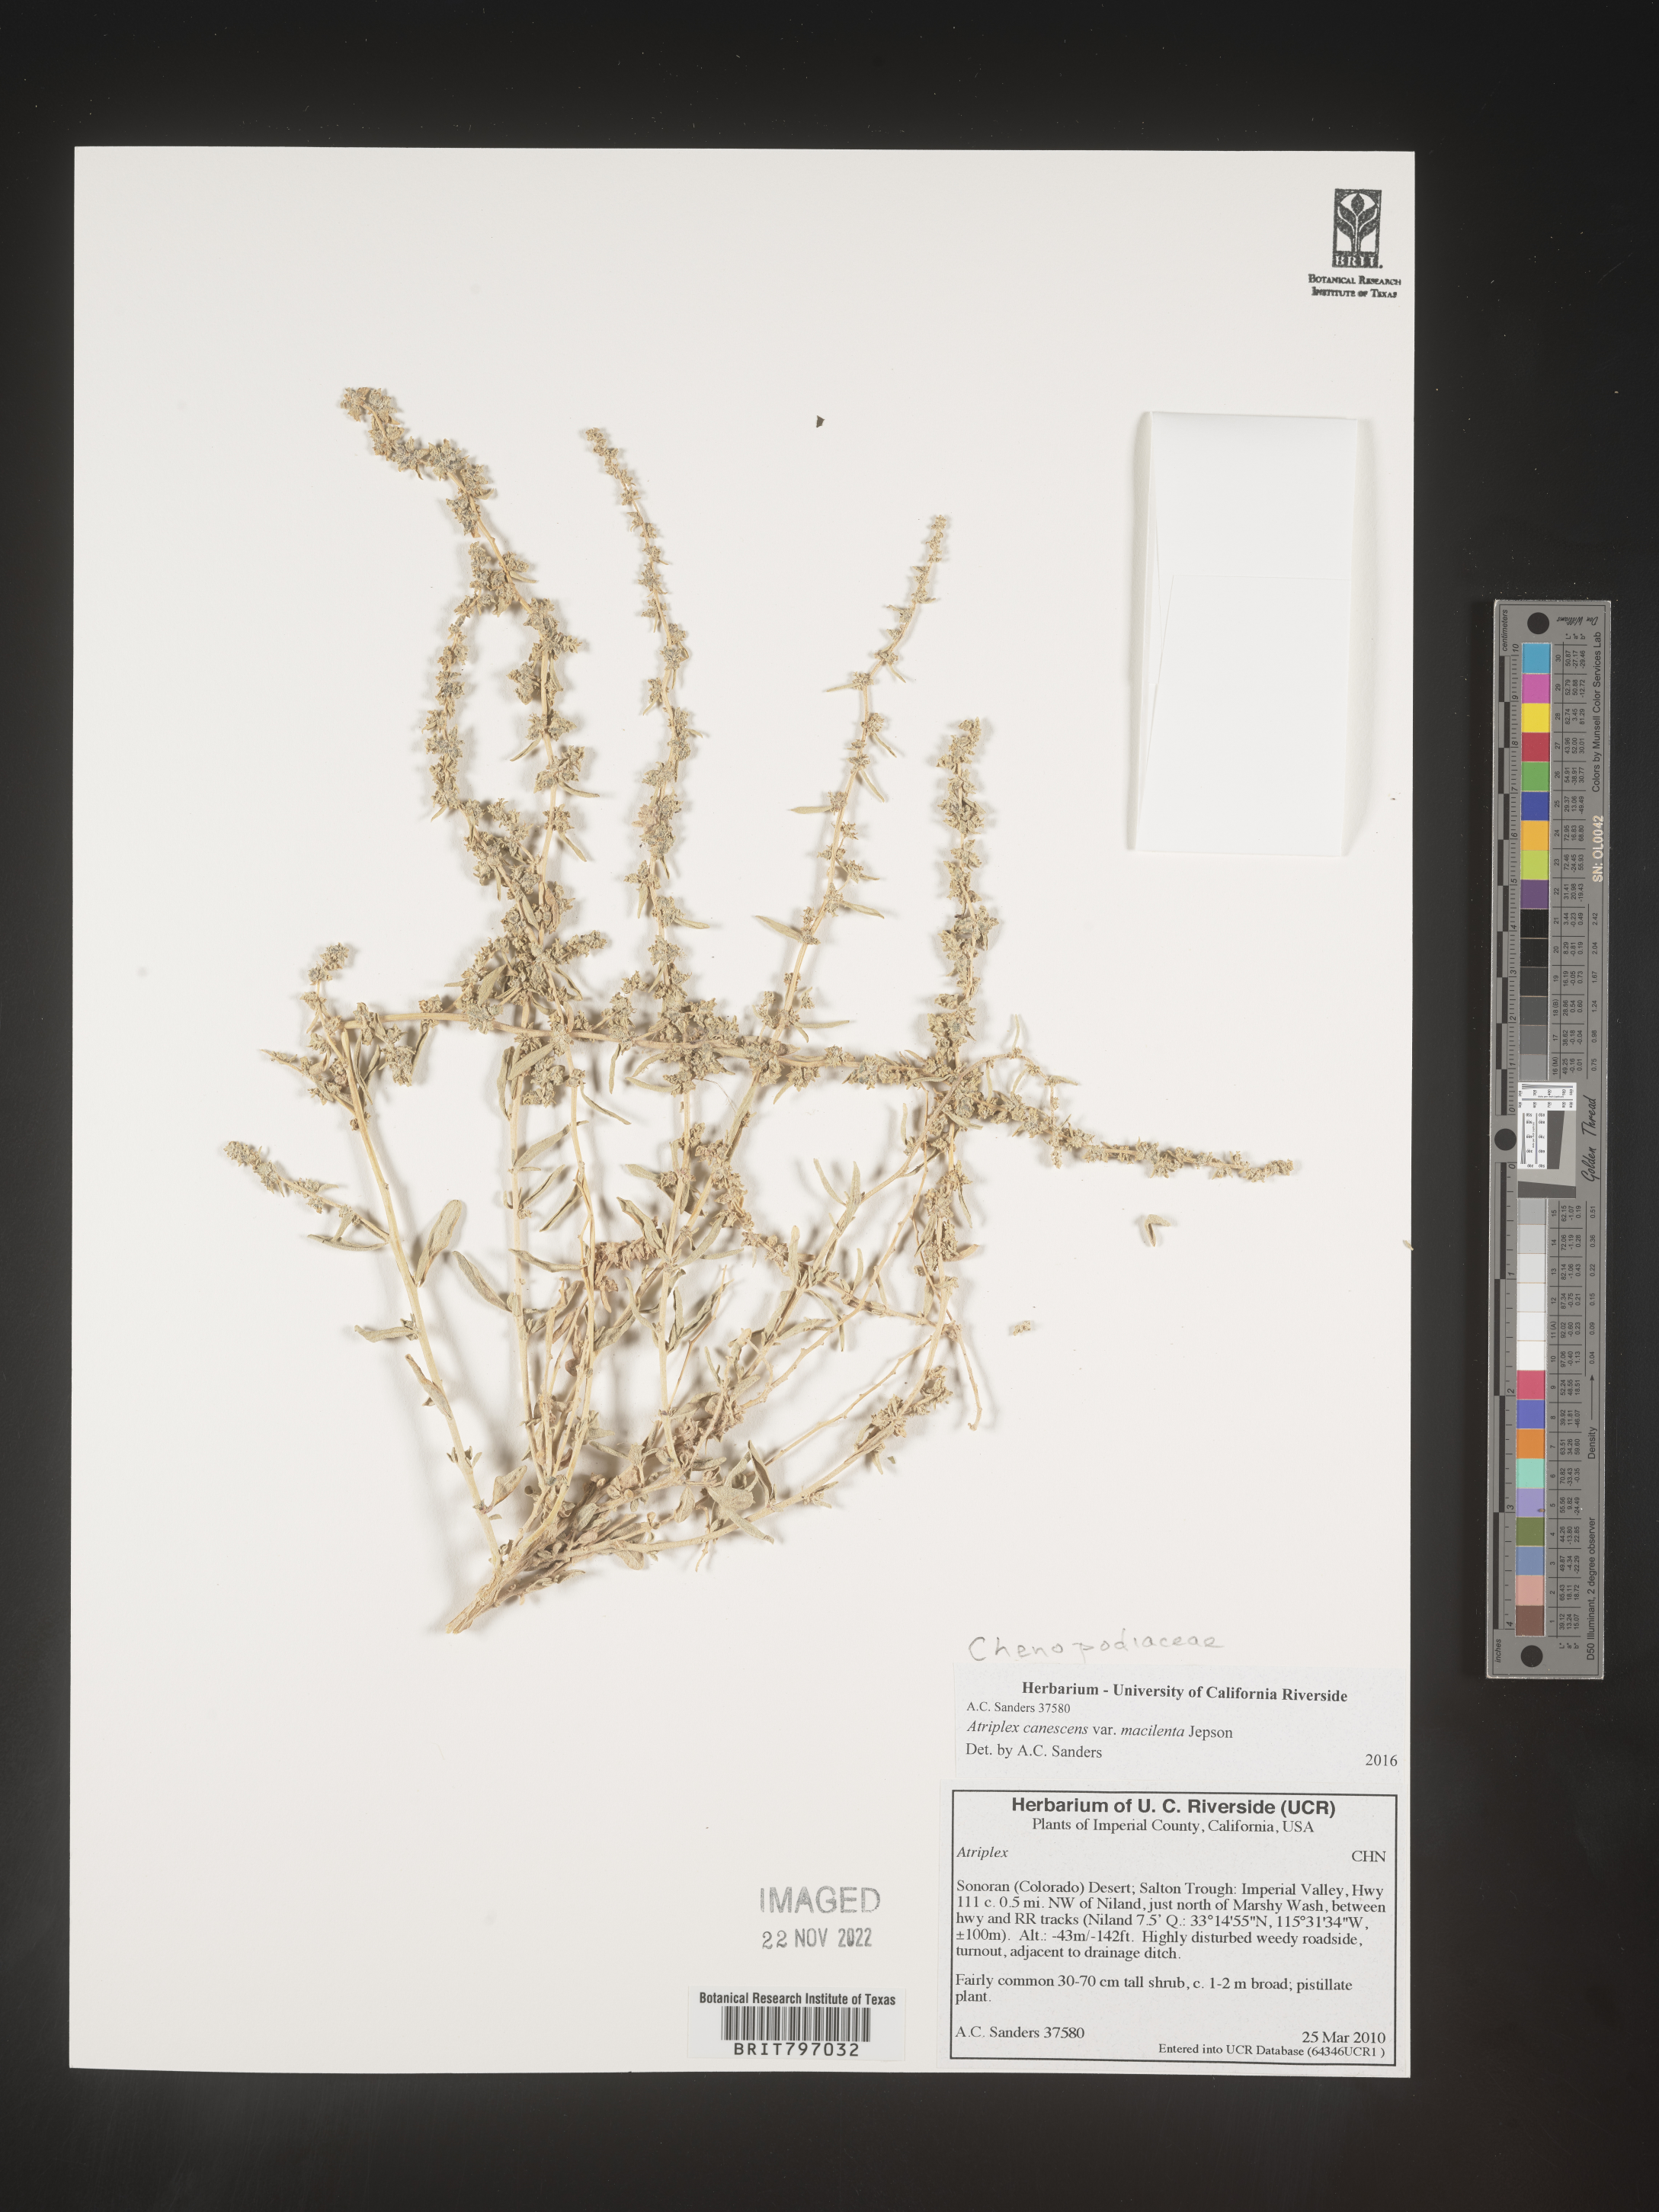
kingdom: Plantae
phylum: Tracheophyta
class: Magnoliopsida
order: Caryophyllales
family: Amaranthaceae
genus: Atriplex
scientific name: Atriplex canescens
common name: Four-wing saltbush
